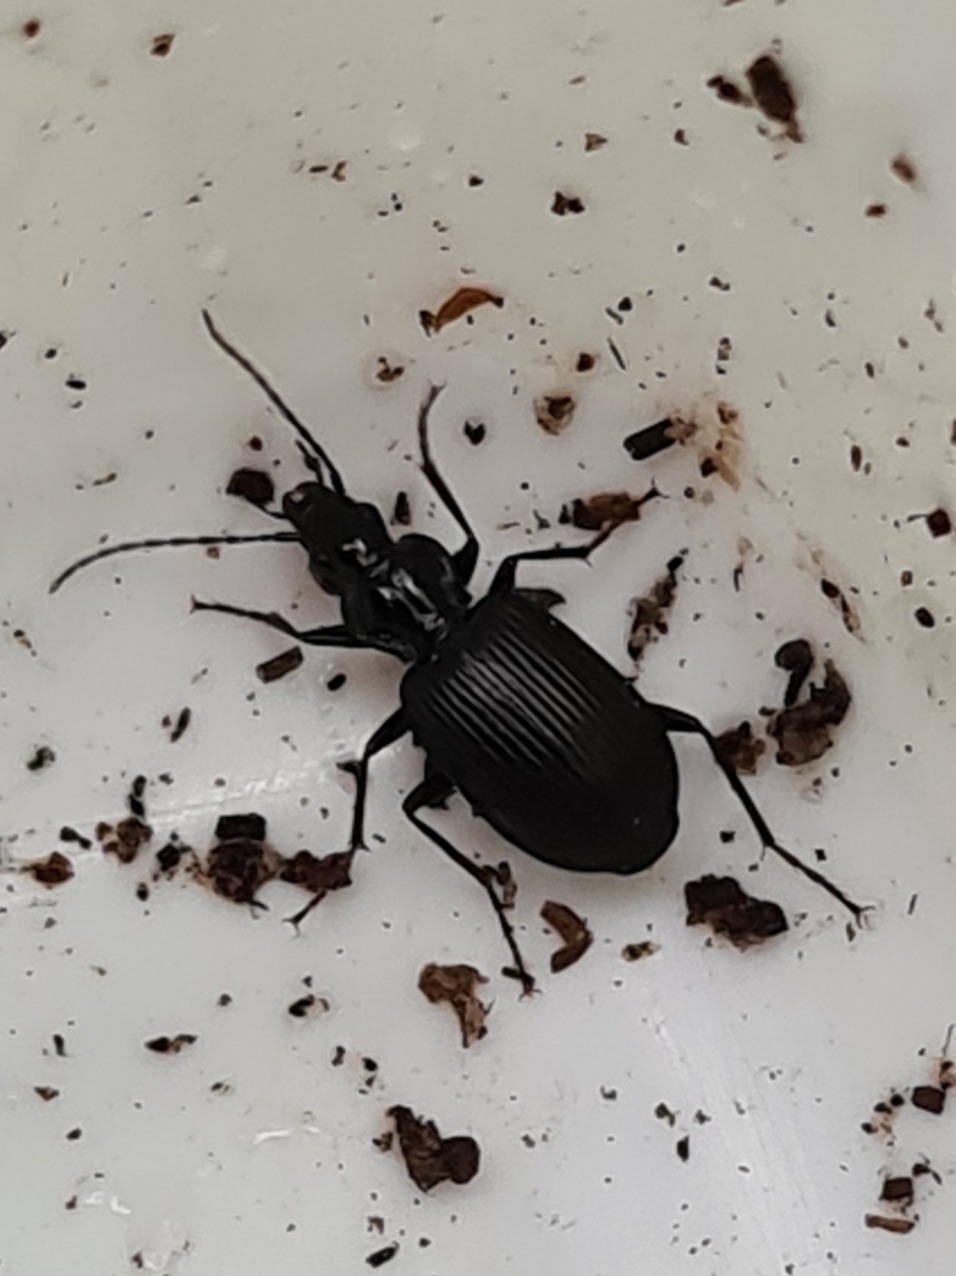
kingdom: Animalia
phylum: Arthropoda
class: Insecta
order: Coleoptera
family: Carabidae
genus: Platynus
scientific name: Platynus assimilis
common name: Skovkvikløber
